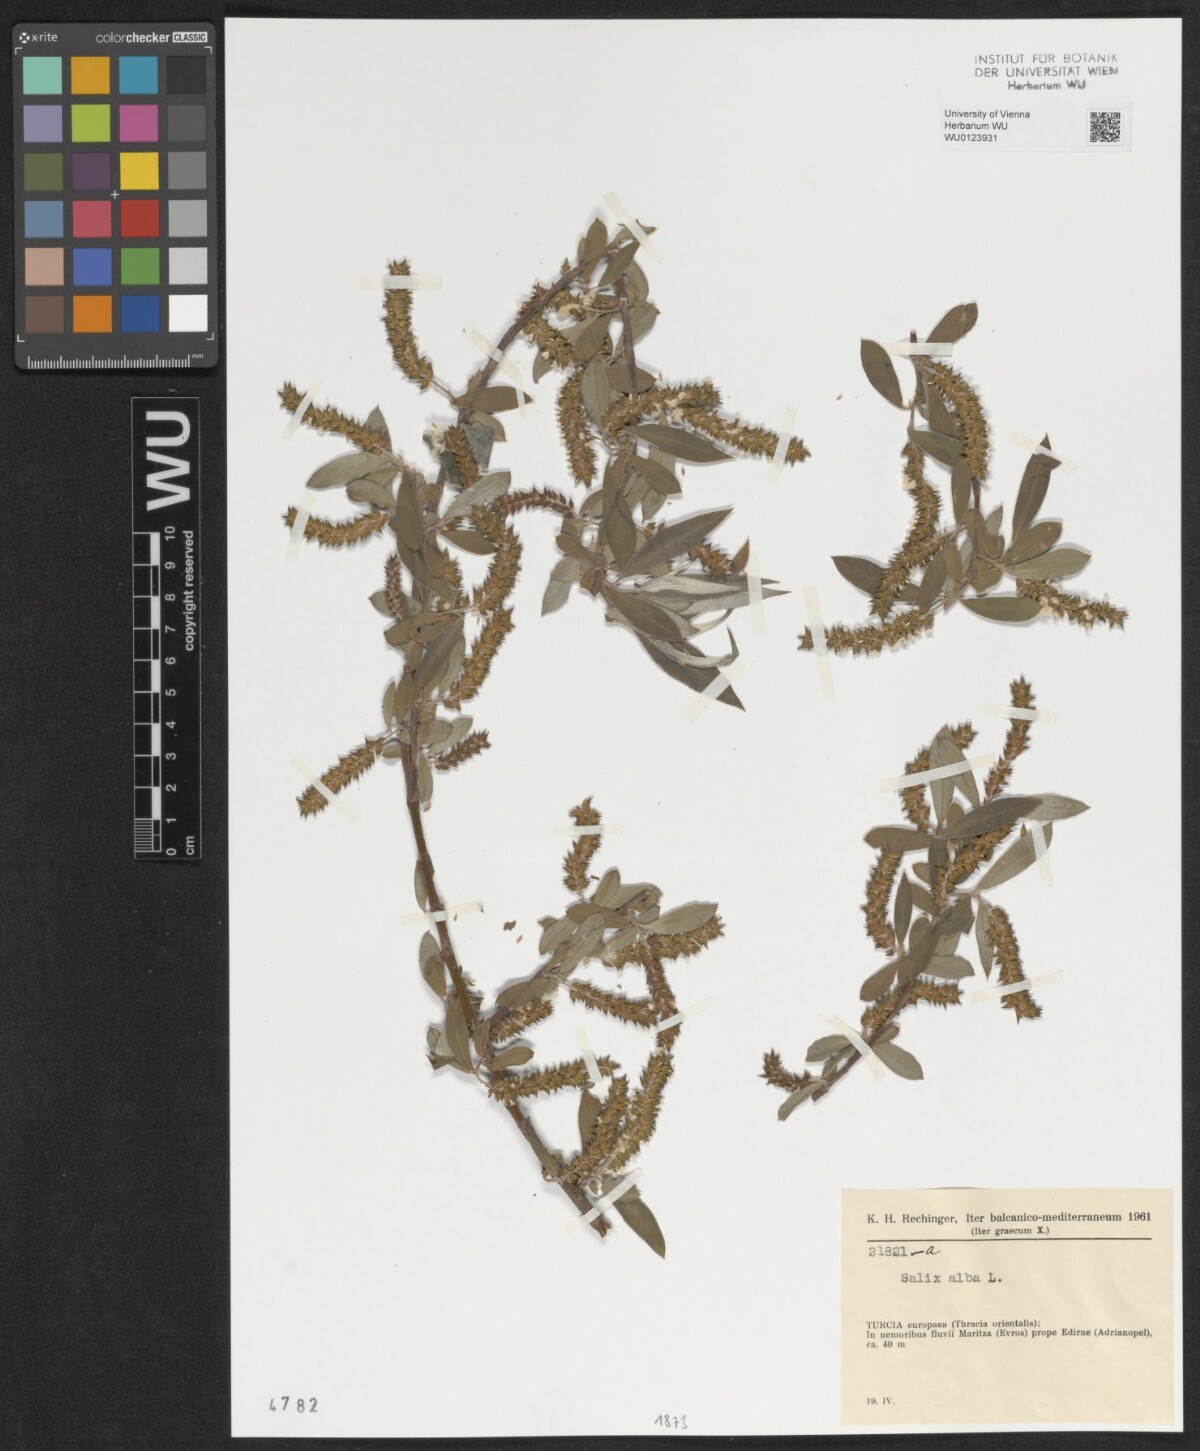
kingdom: Plantae
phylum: Tracheophyta
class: Magnoliopsida
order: Malpighiales
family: Salicaceae
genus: Salix
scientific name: Salix alba
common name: White willow
